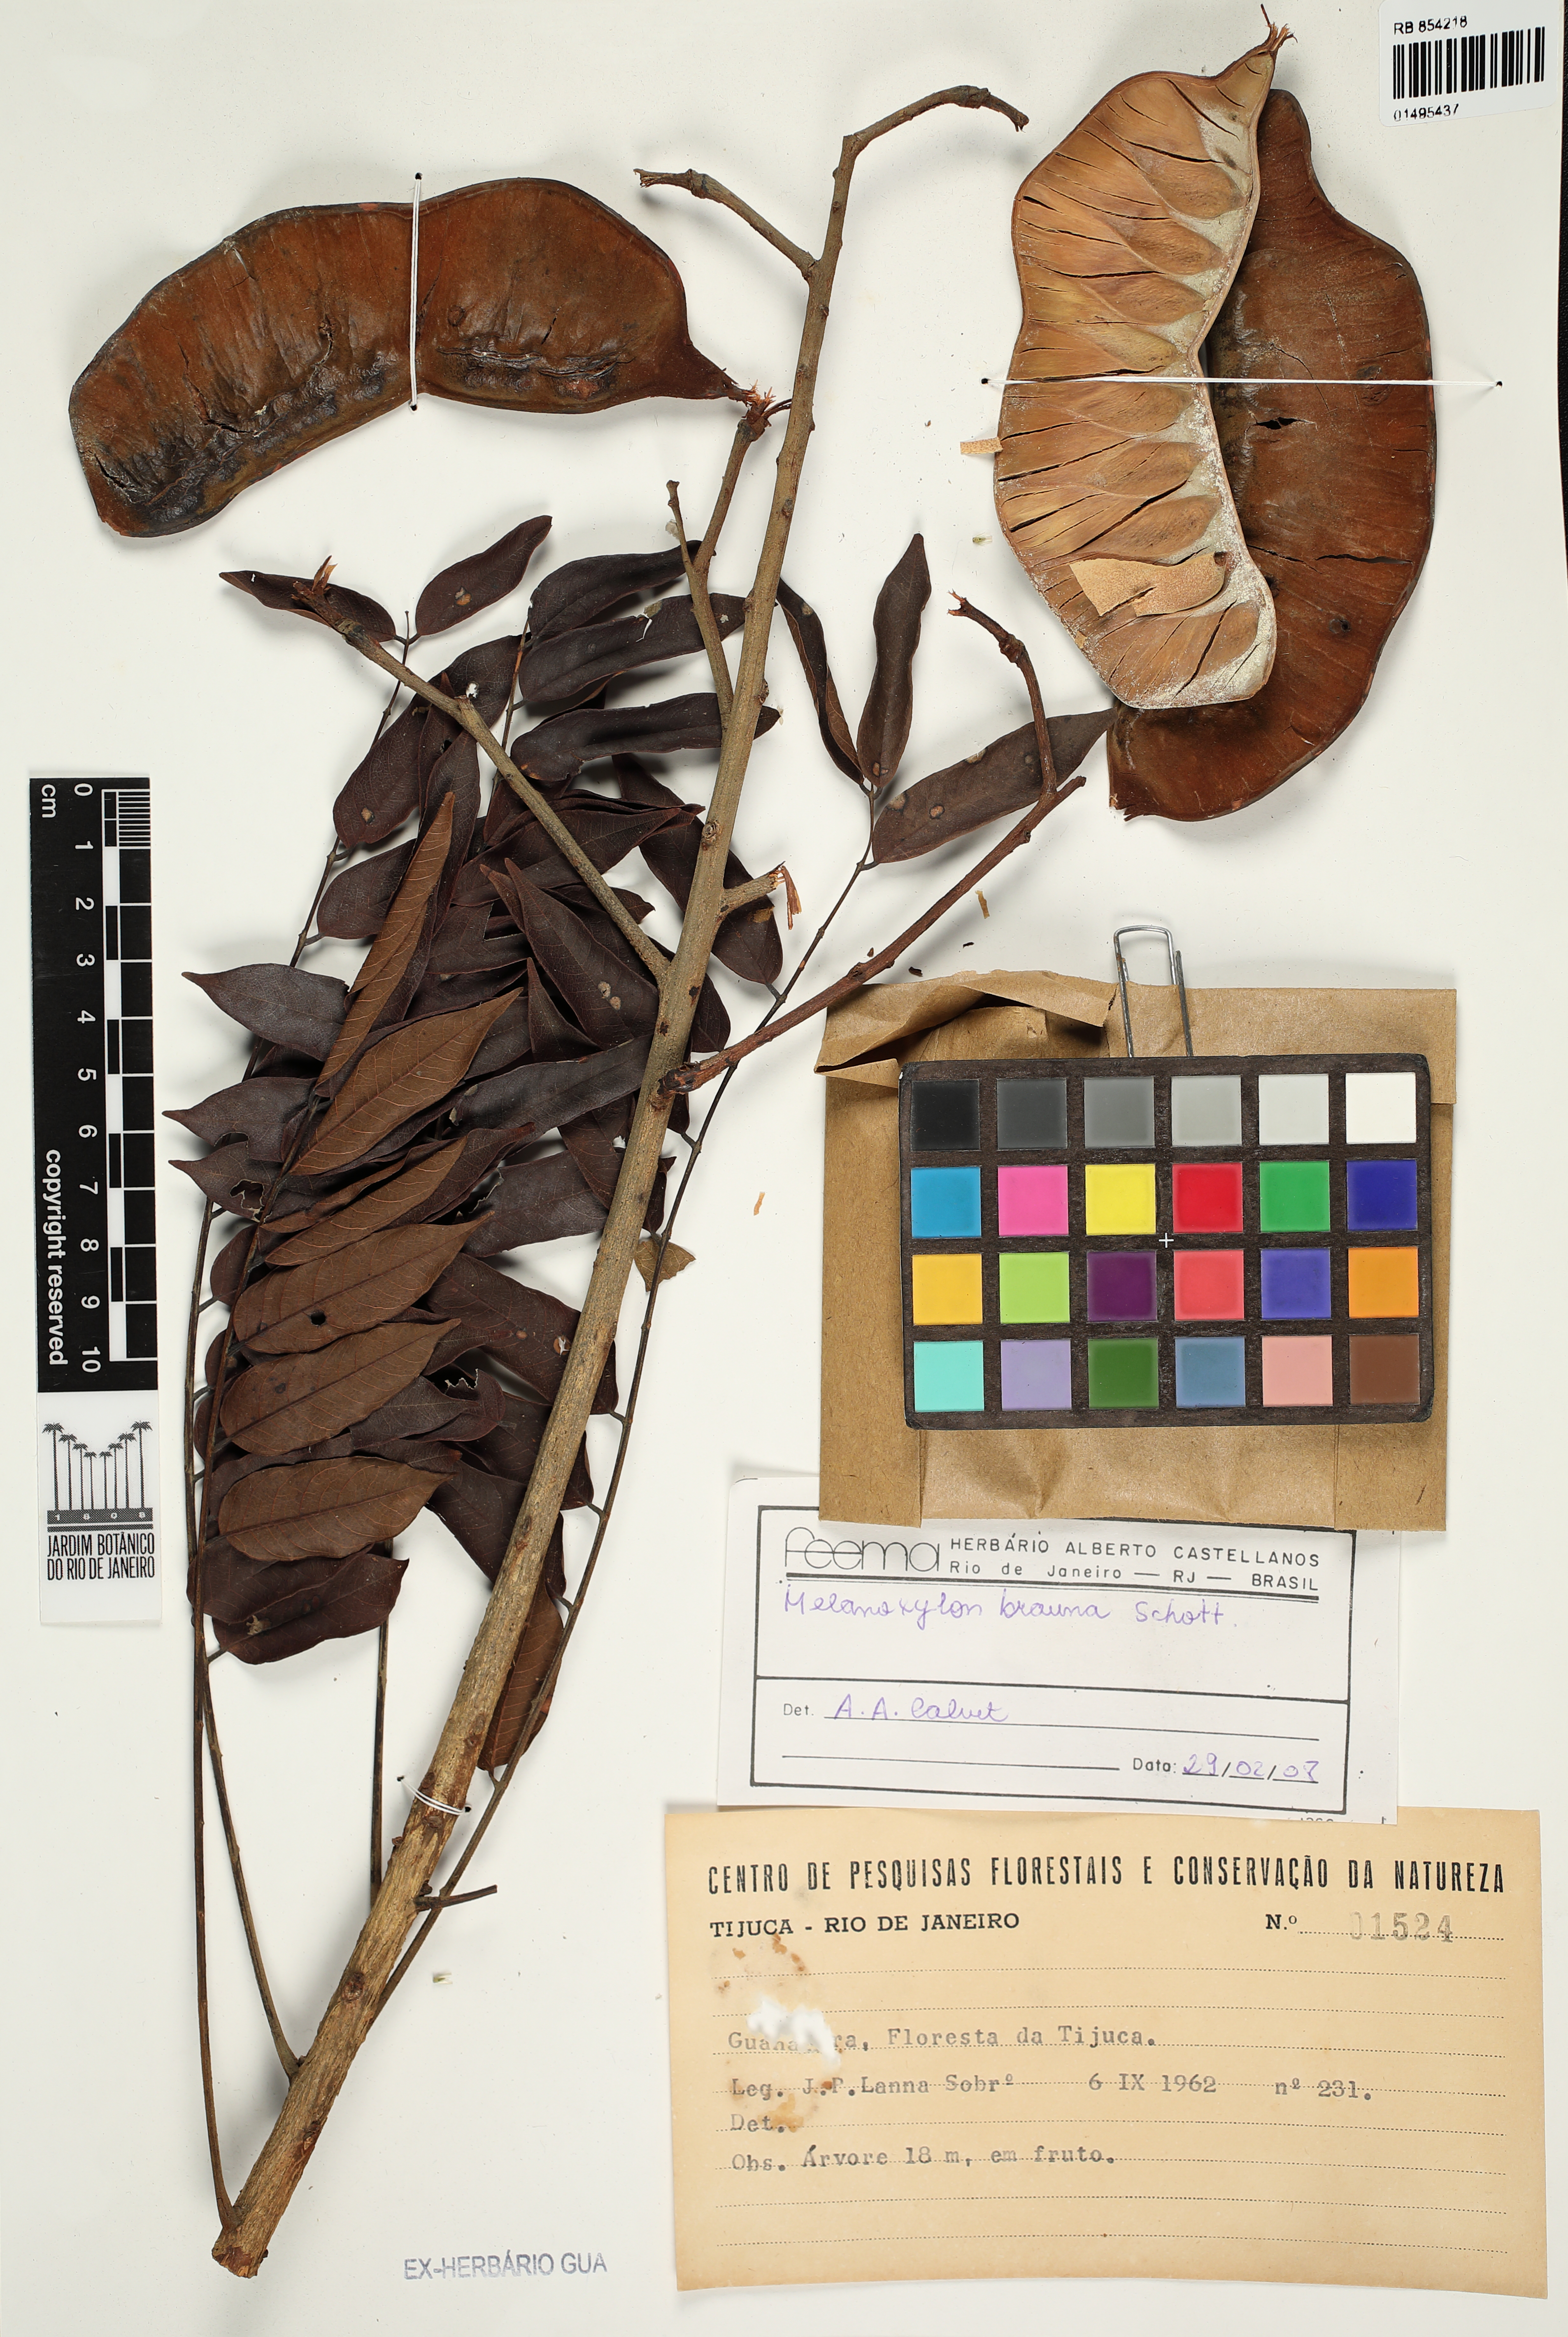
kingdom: Plantae
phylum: Tracheophyta
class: Magnoliopsida
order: Fabales
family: Fabaceae
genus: Melanoxylon
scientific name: Melanoxylon brauna
